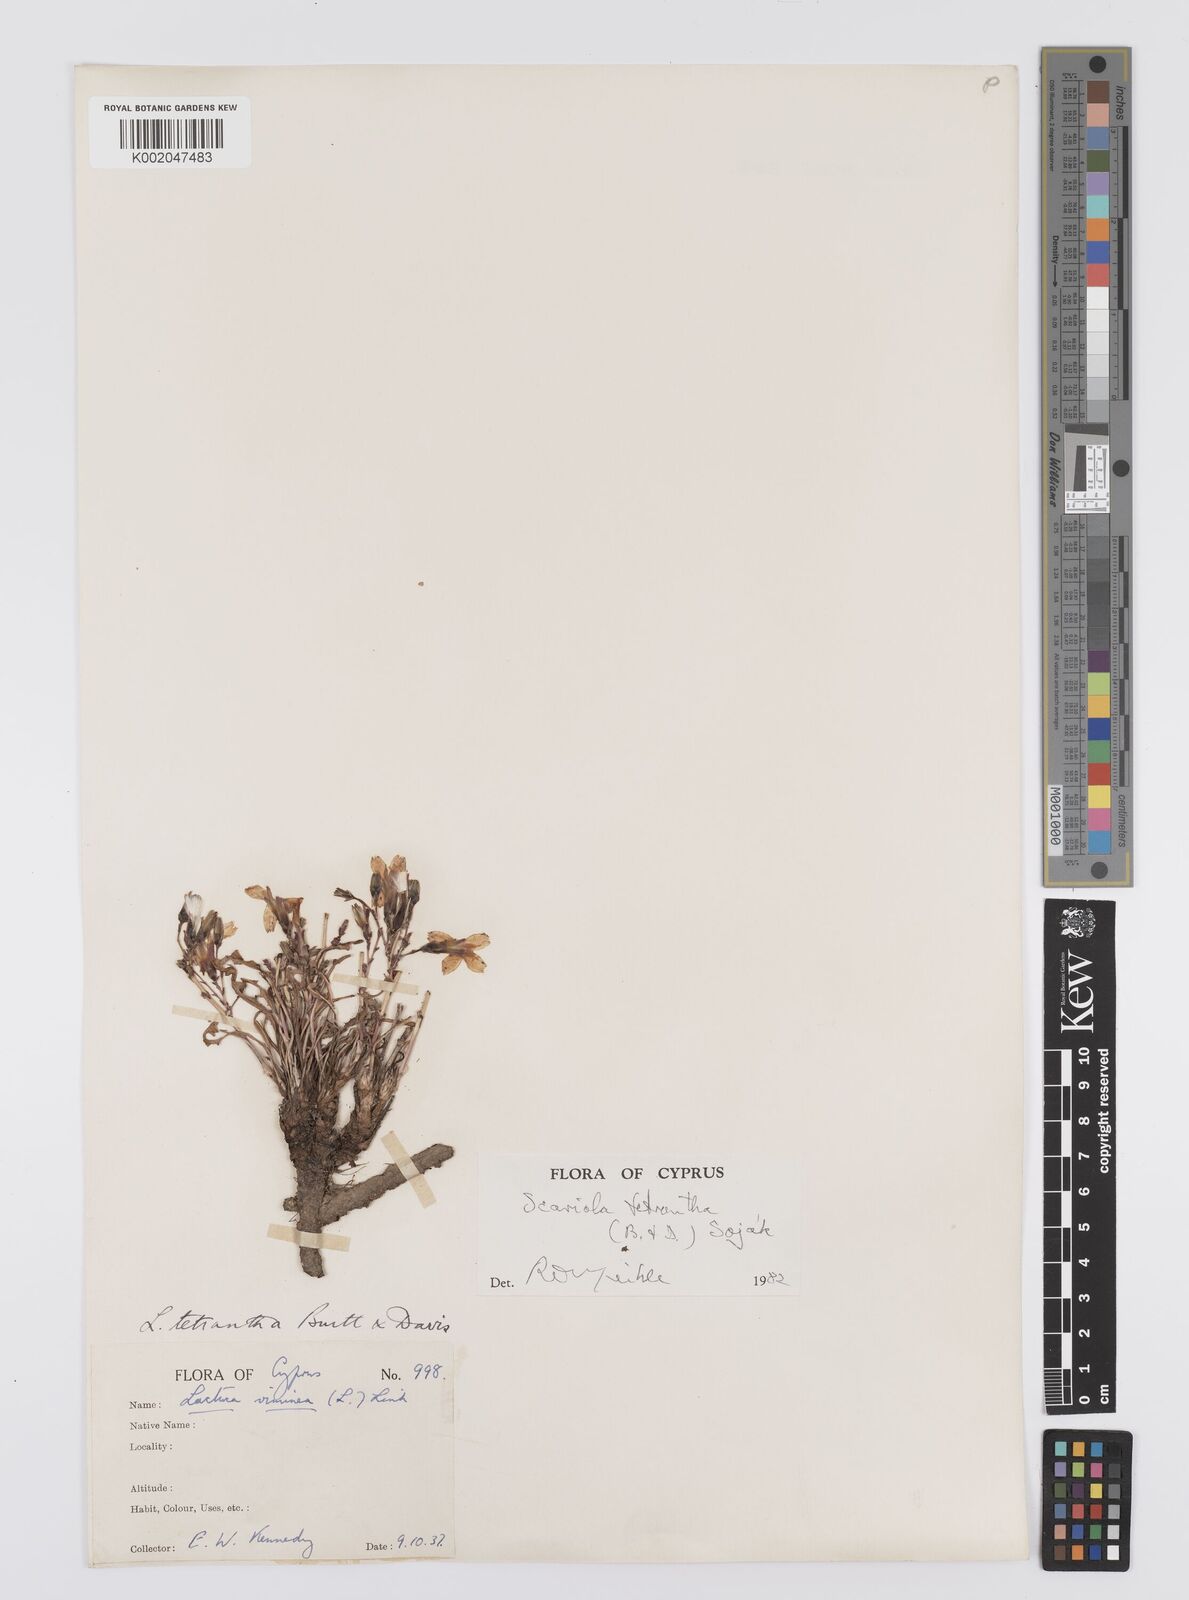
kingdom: Plantae
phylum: Tracheophyta
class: Magnoliopsida
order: Asterales
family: Asteraceae
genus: Lactuca
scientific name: Lactuca tetrantha
